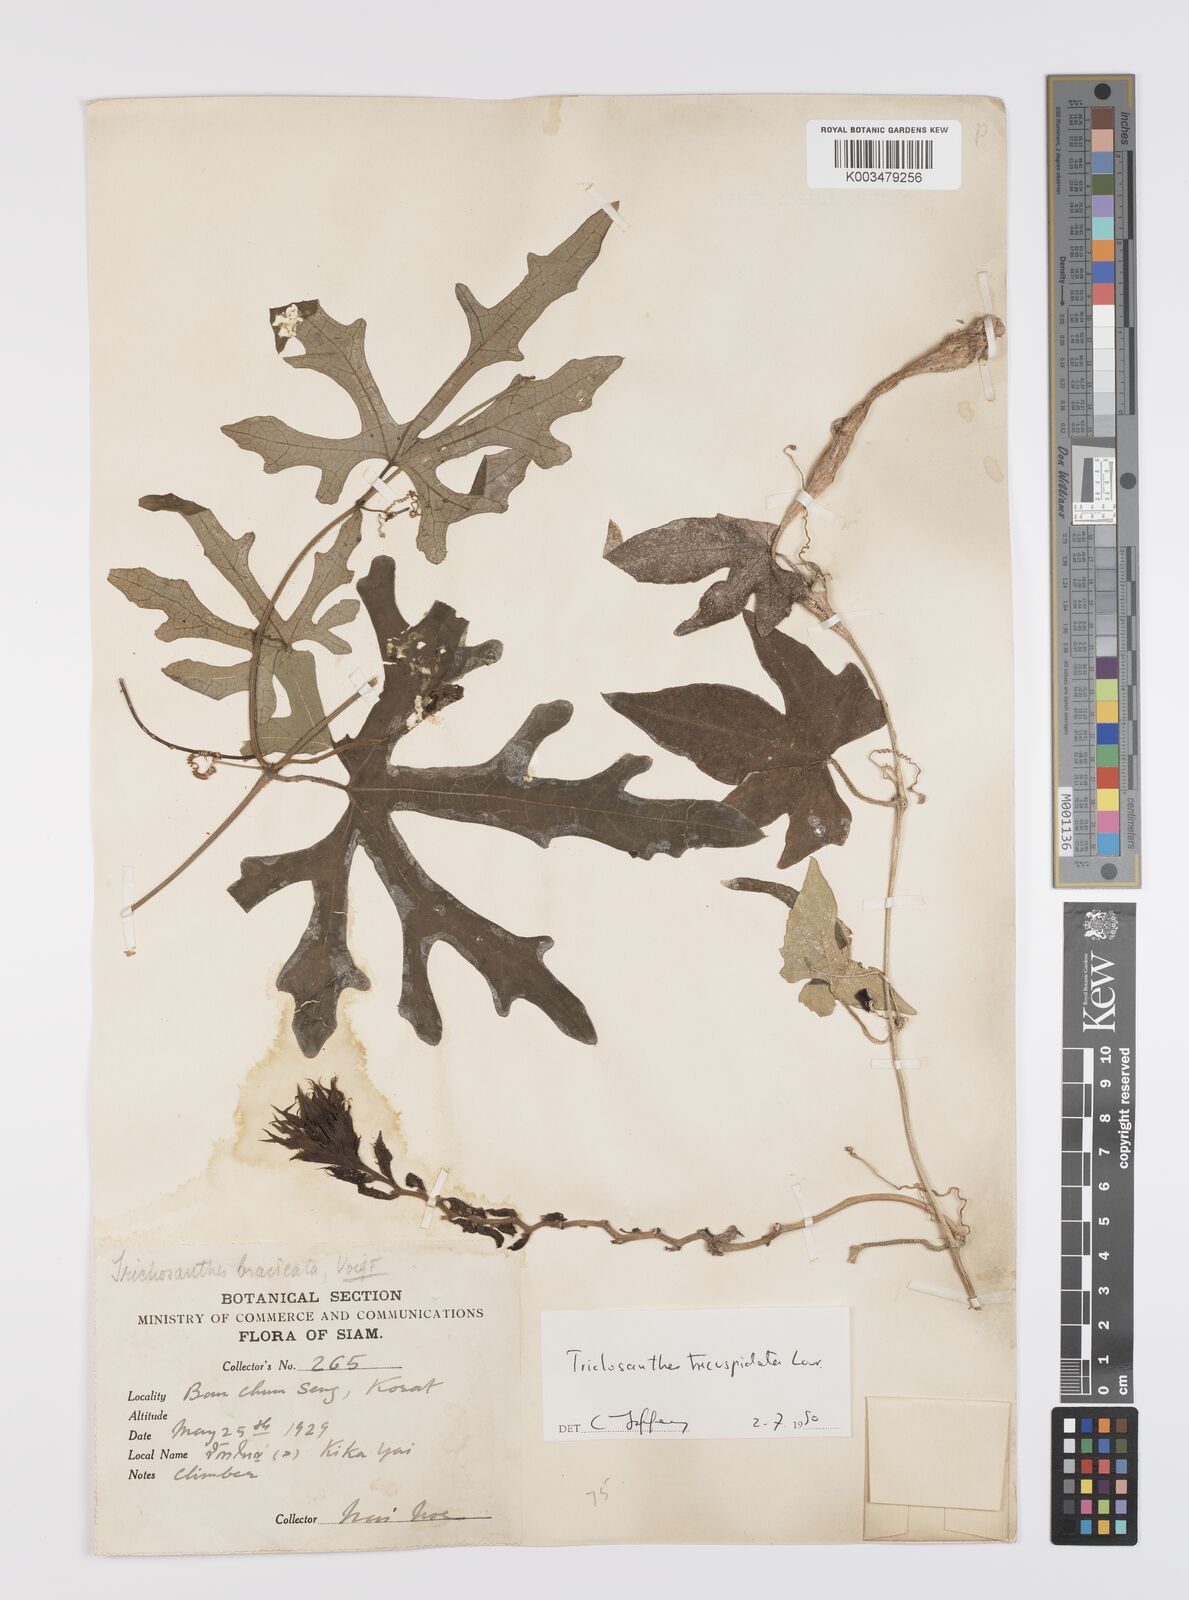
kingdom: Plantae
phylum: Tracheophyta
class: Magnoliopsida
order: Cucurbitales
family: Cucurbitaceae
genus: Trichosanthes
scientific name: Trichosanthes tricuspidata
